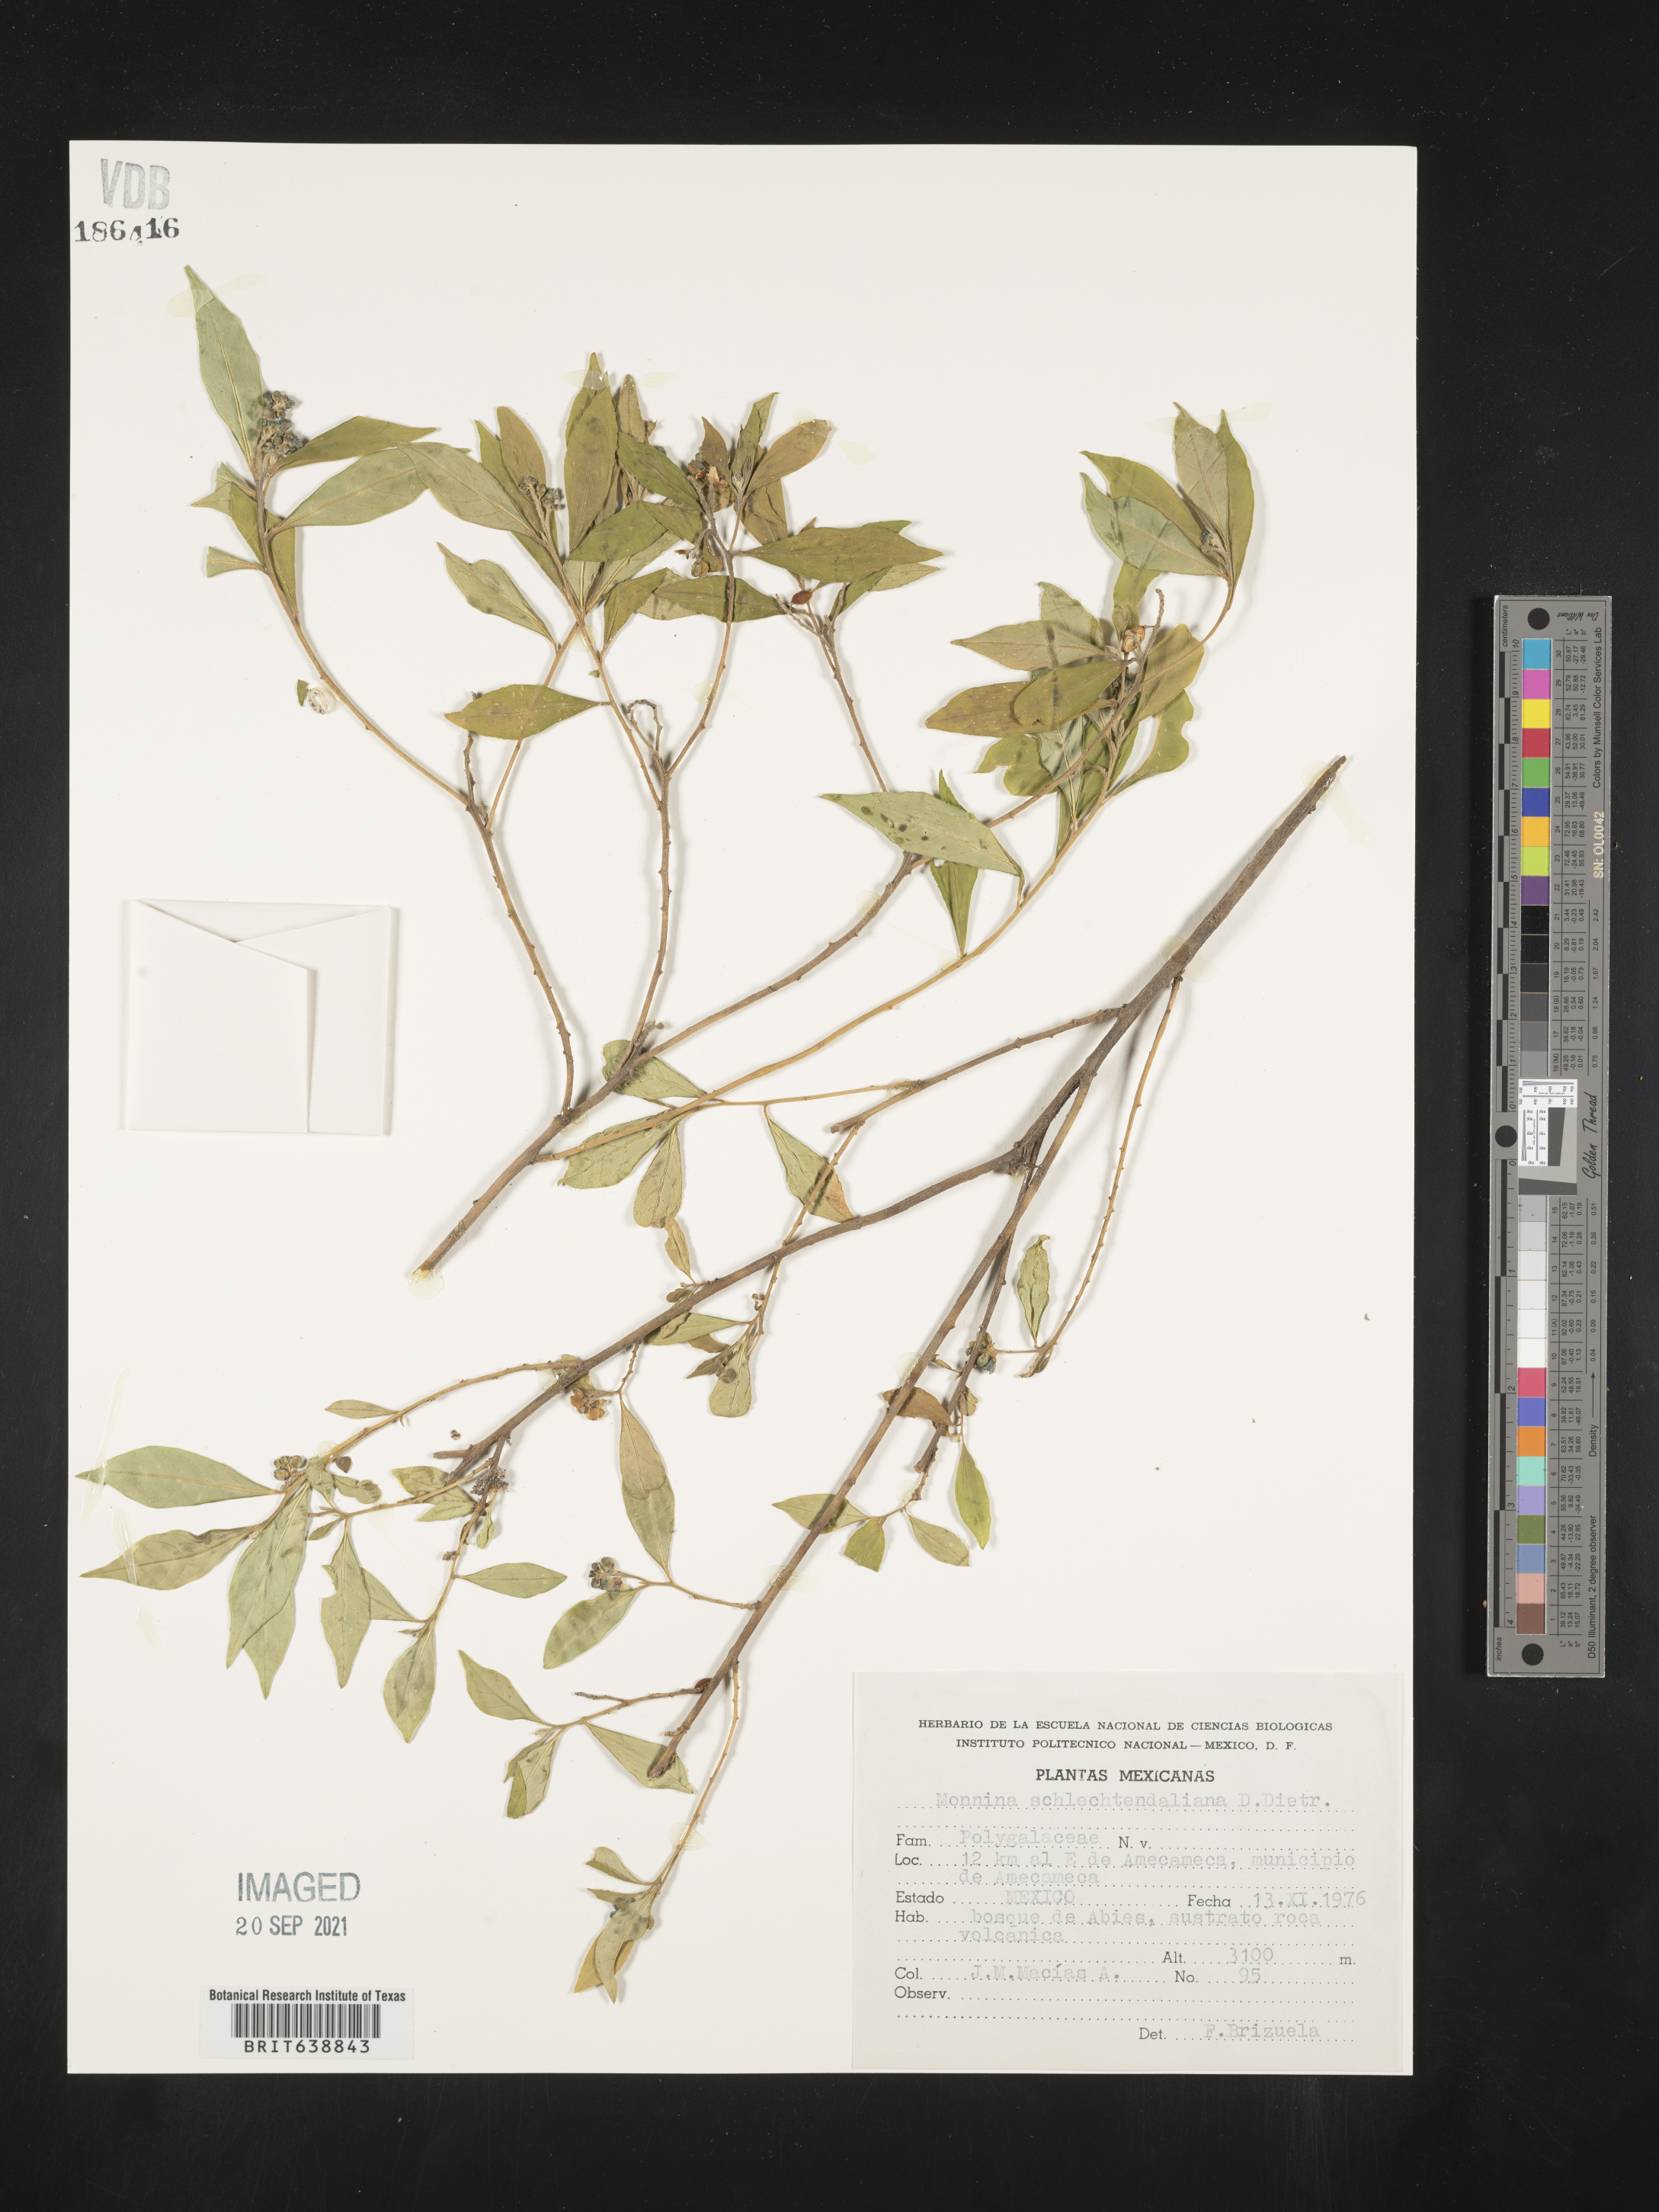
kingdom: Plantae
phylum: Tracheophyta
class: Magnoliopsida
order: Fabales
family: Polygalaceae
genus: Monnina
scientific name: Monnina
